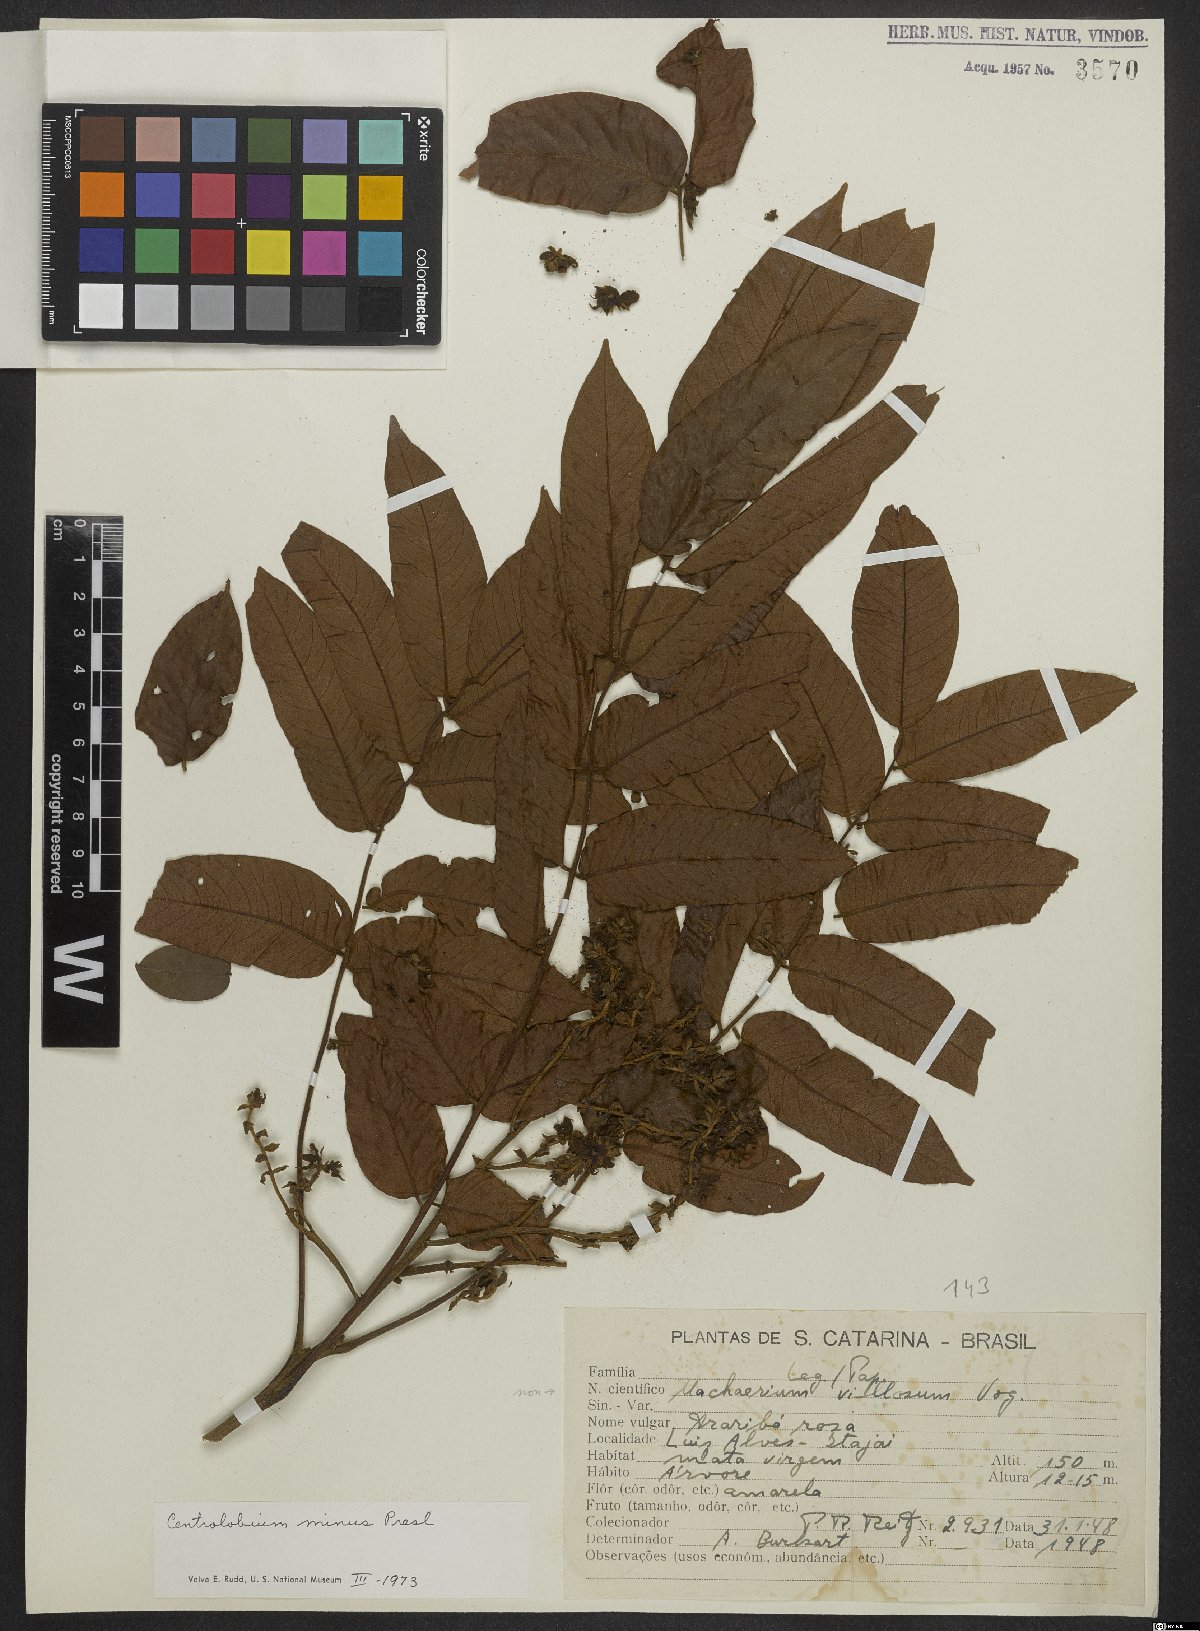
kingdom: Plantae
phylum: Tracheophyta
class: Magnoliopsida
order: Fabales
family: Fabaceae
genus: Centrolobium
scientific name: Centrolobium robustum
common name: Zebrawood
